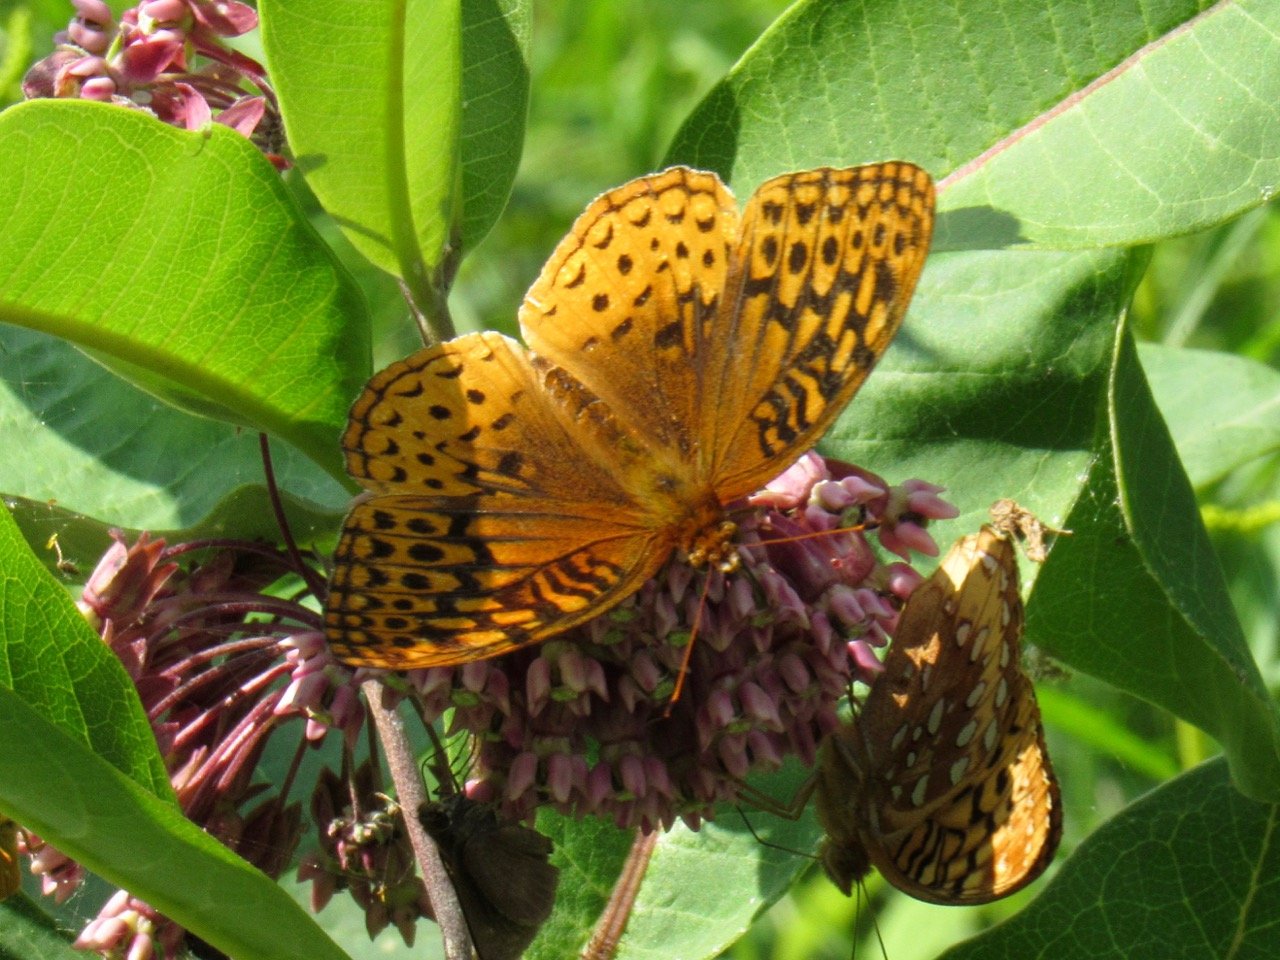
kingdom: Animalia
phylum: Arthropoda
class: Insecta
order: Lepidoptera
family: Nymphalidae
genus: Speyeria
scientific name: Speyeria cybele
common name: Great Spangled Fritillary
